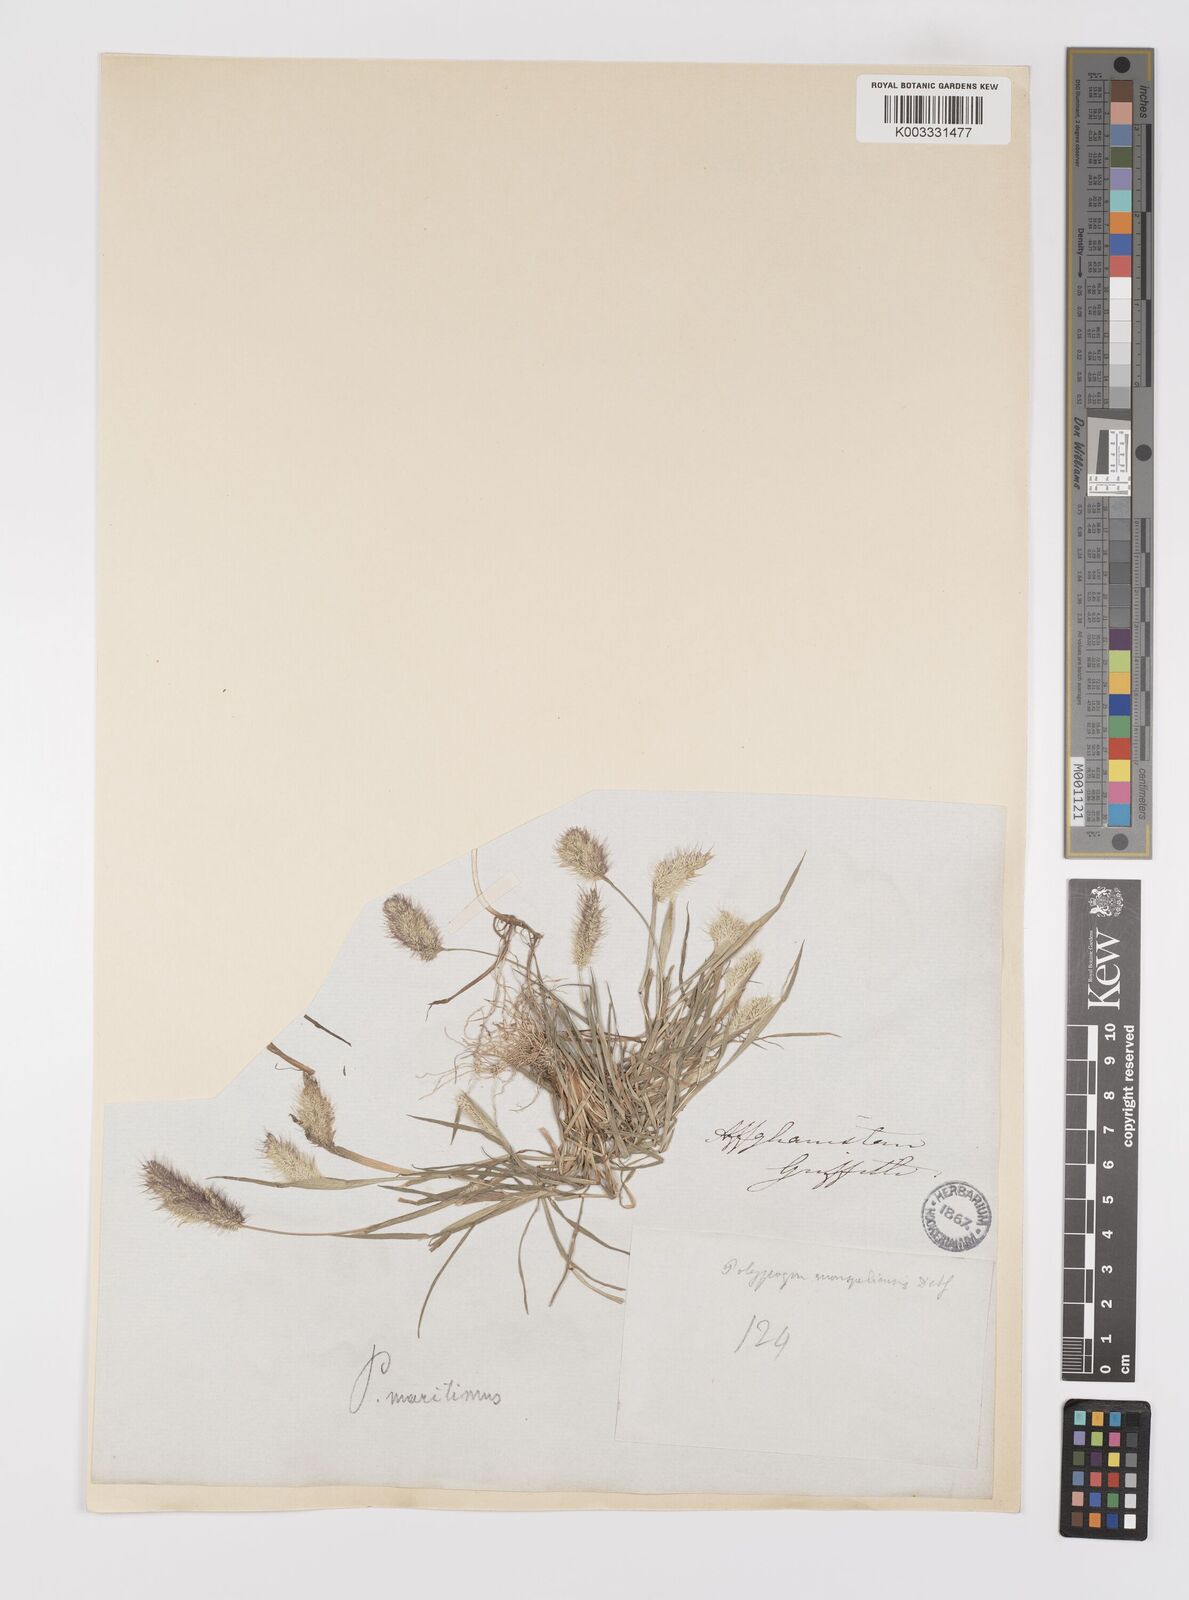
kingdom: Plantae
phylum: Tracheophyta
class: Liliopsida
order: Poales
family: Poaceae
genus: Polypogon
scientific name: Polypogon maritimus
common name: Mediterranean rabbitsfoot grass
